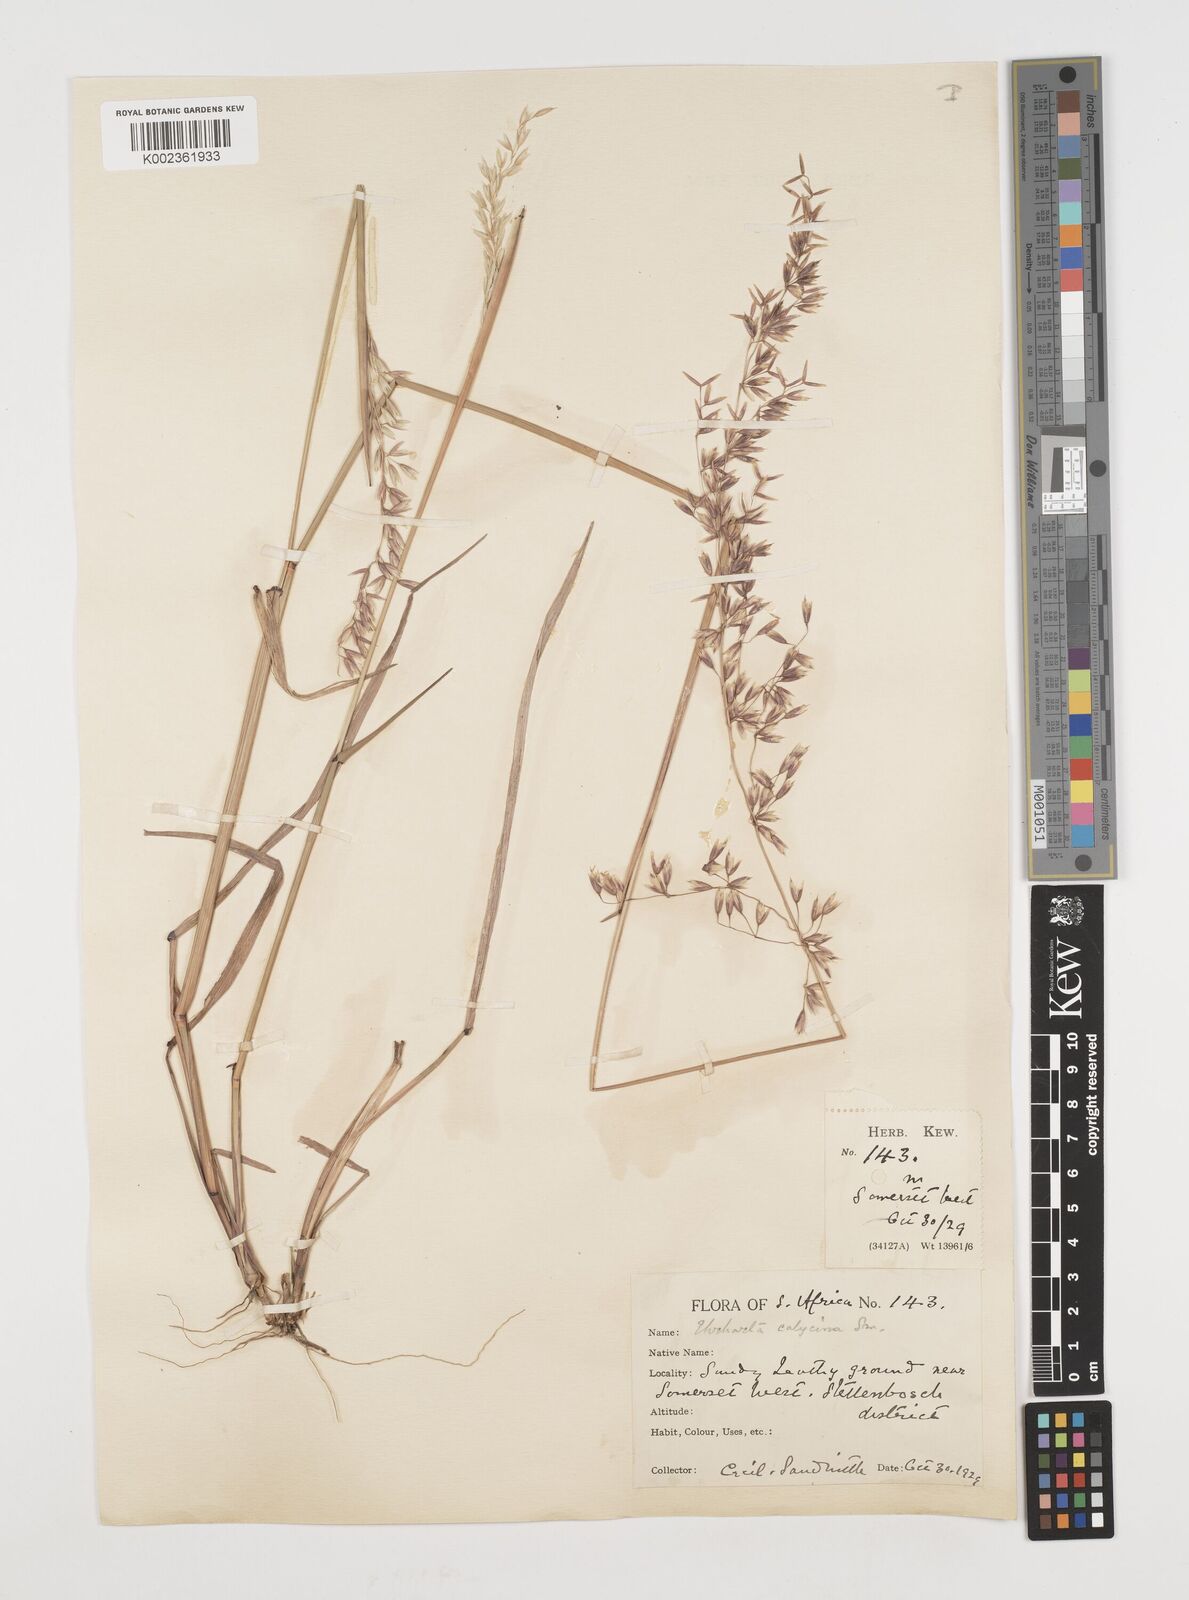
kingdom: Plantae
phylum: Tracheophyta
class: Liliopsida
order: Poales
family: Poaceae
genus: Ehrharta
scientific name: Ehrharta calycina
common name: Perennial veldtgrass
